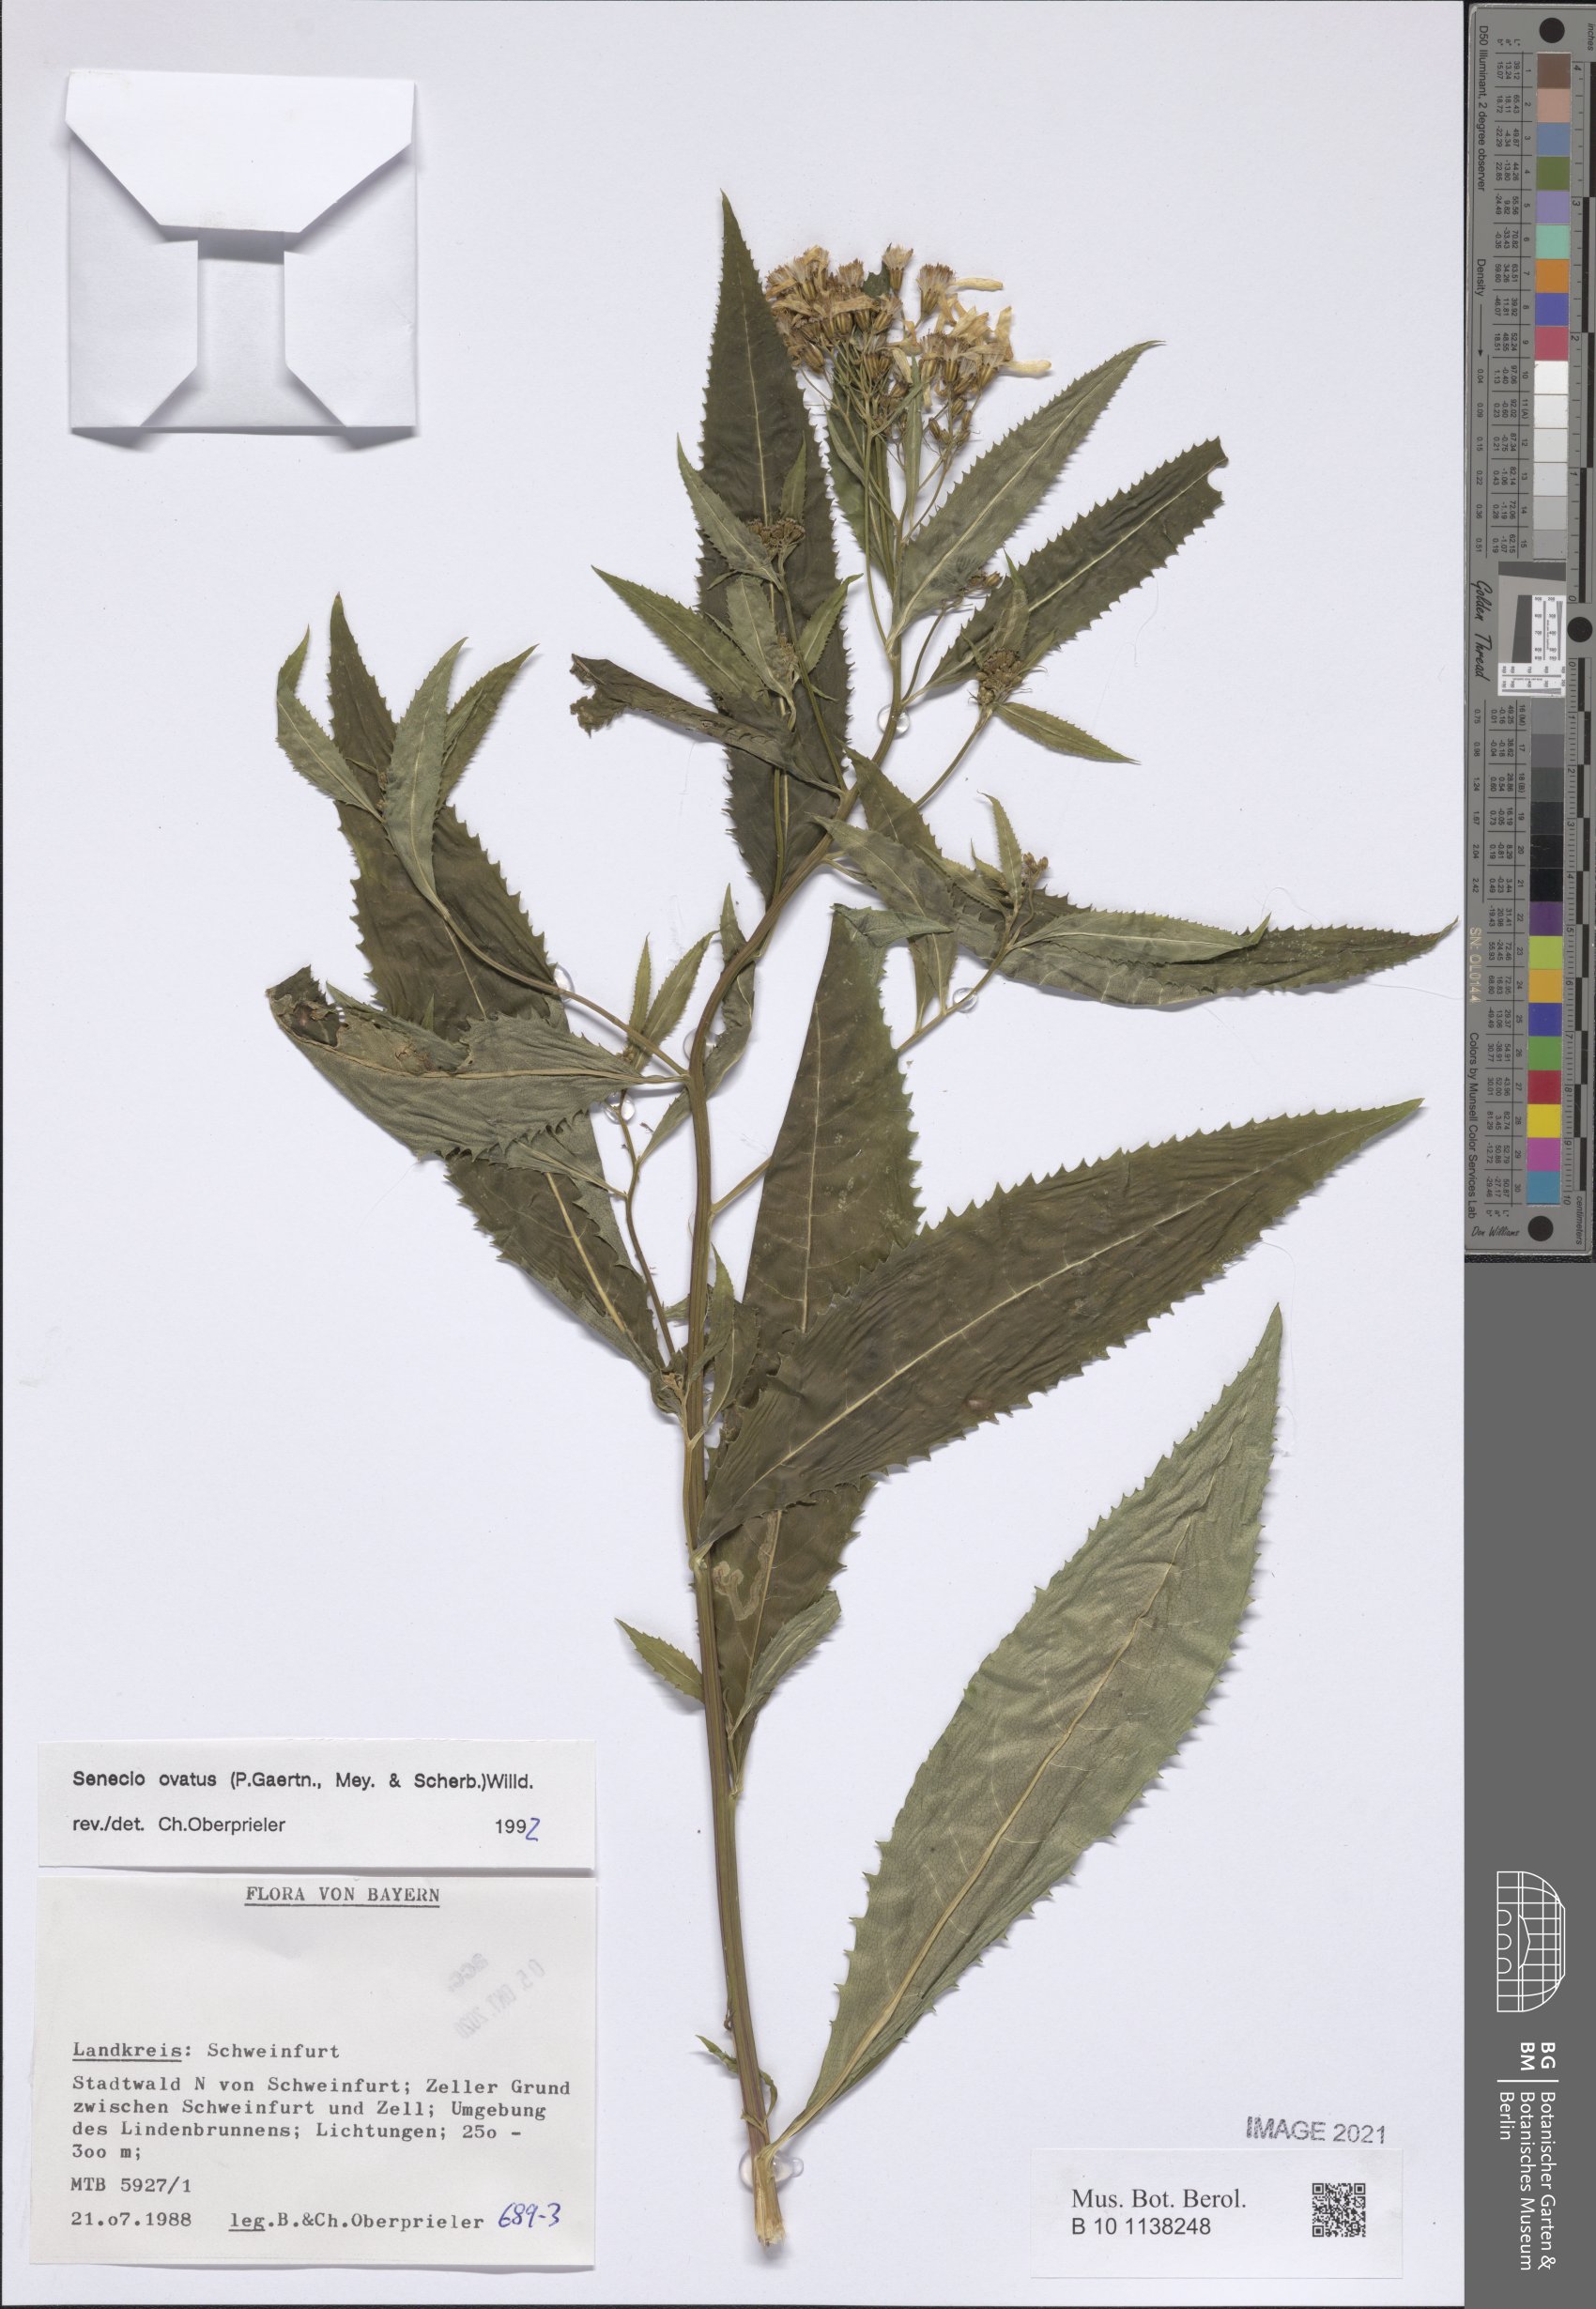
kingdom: Plantae
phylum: Tracheophyta
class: Magnoliopsida
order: Asterales
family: Asteraceae
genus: Senecio
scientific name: Senecio ovatus
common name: Wood ragwort
